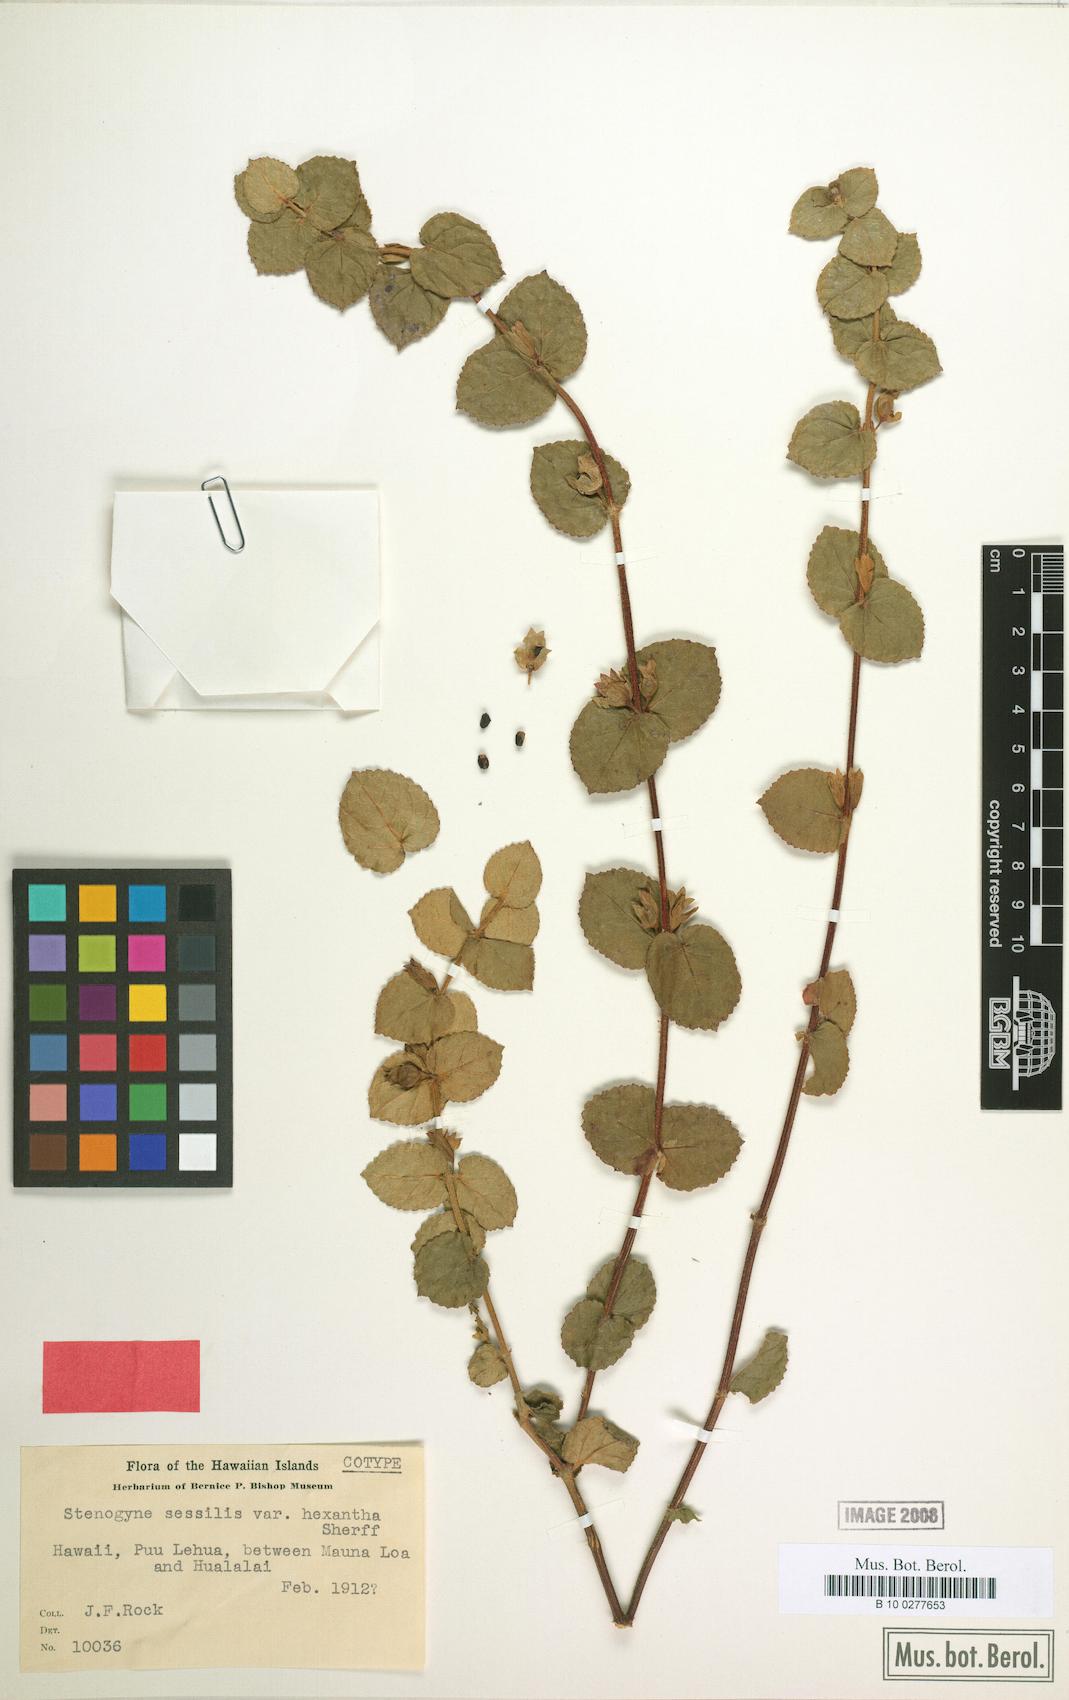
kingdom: Plantae
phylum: Tracheophyta
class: Magnoliopsida
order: Lamiales
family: Lamiaceae
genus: Stenogyne
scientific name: Stenogyne sessilis
